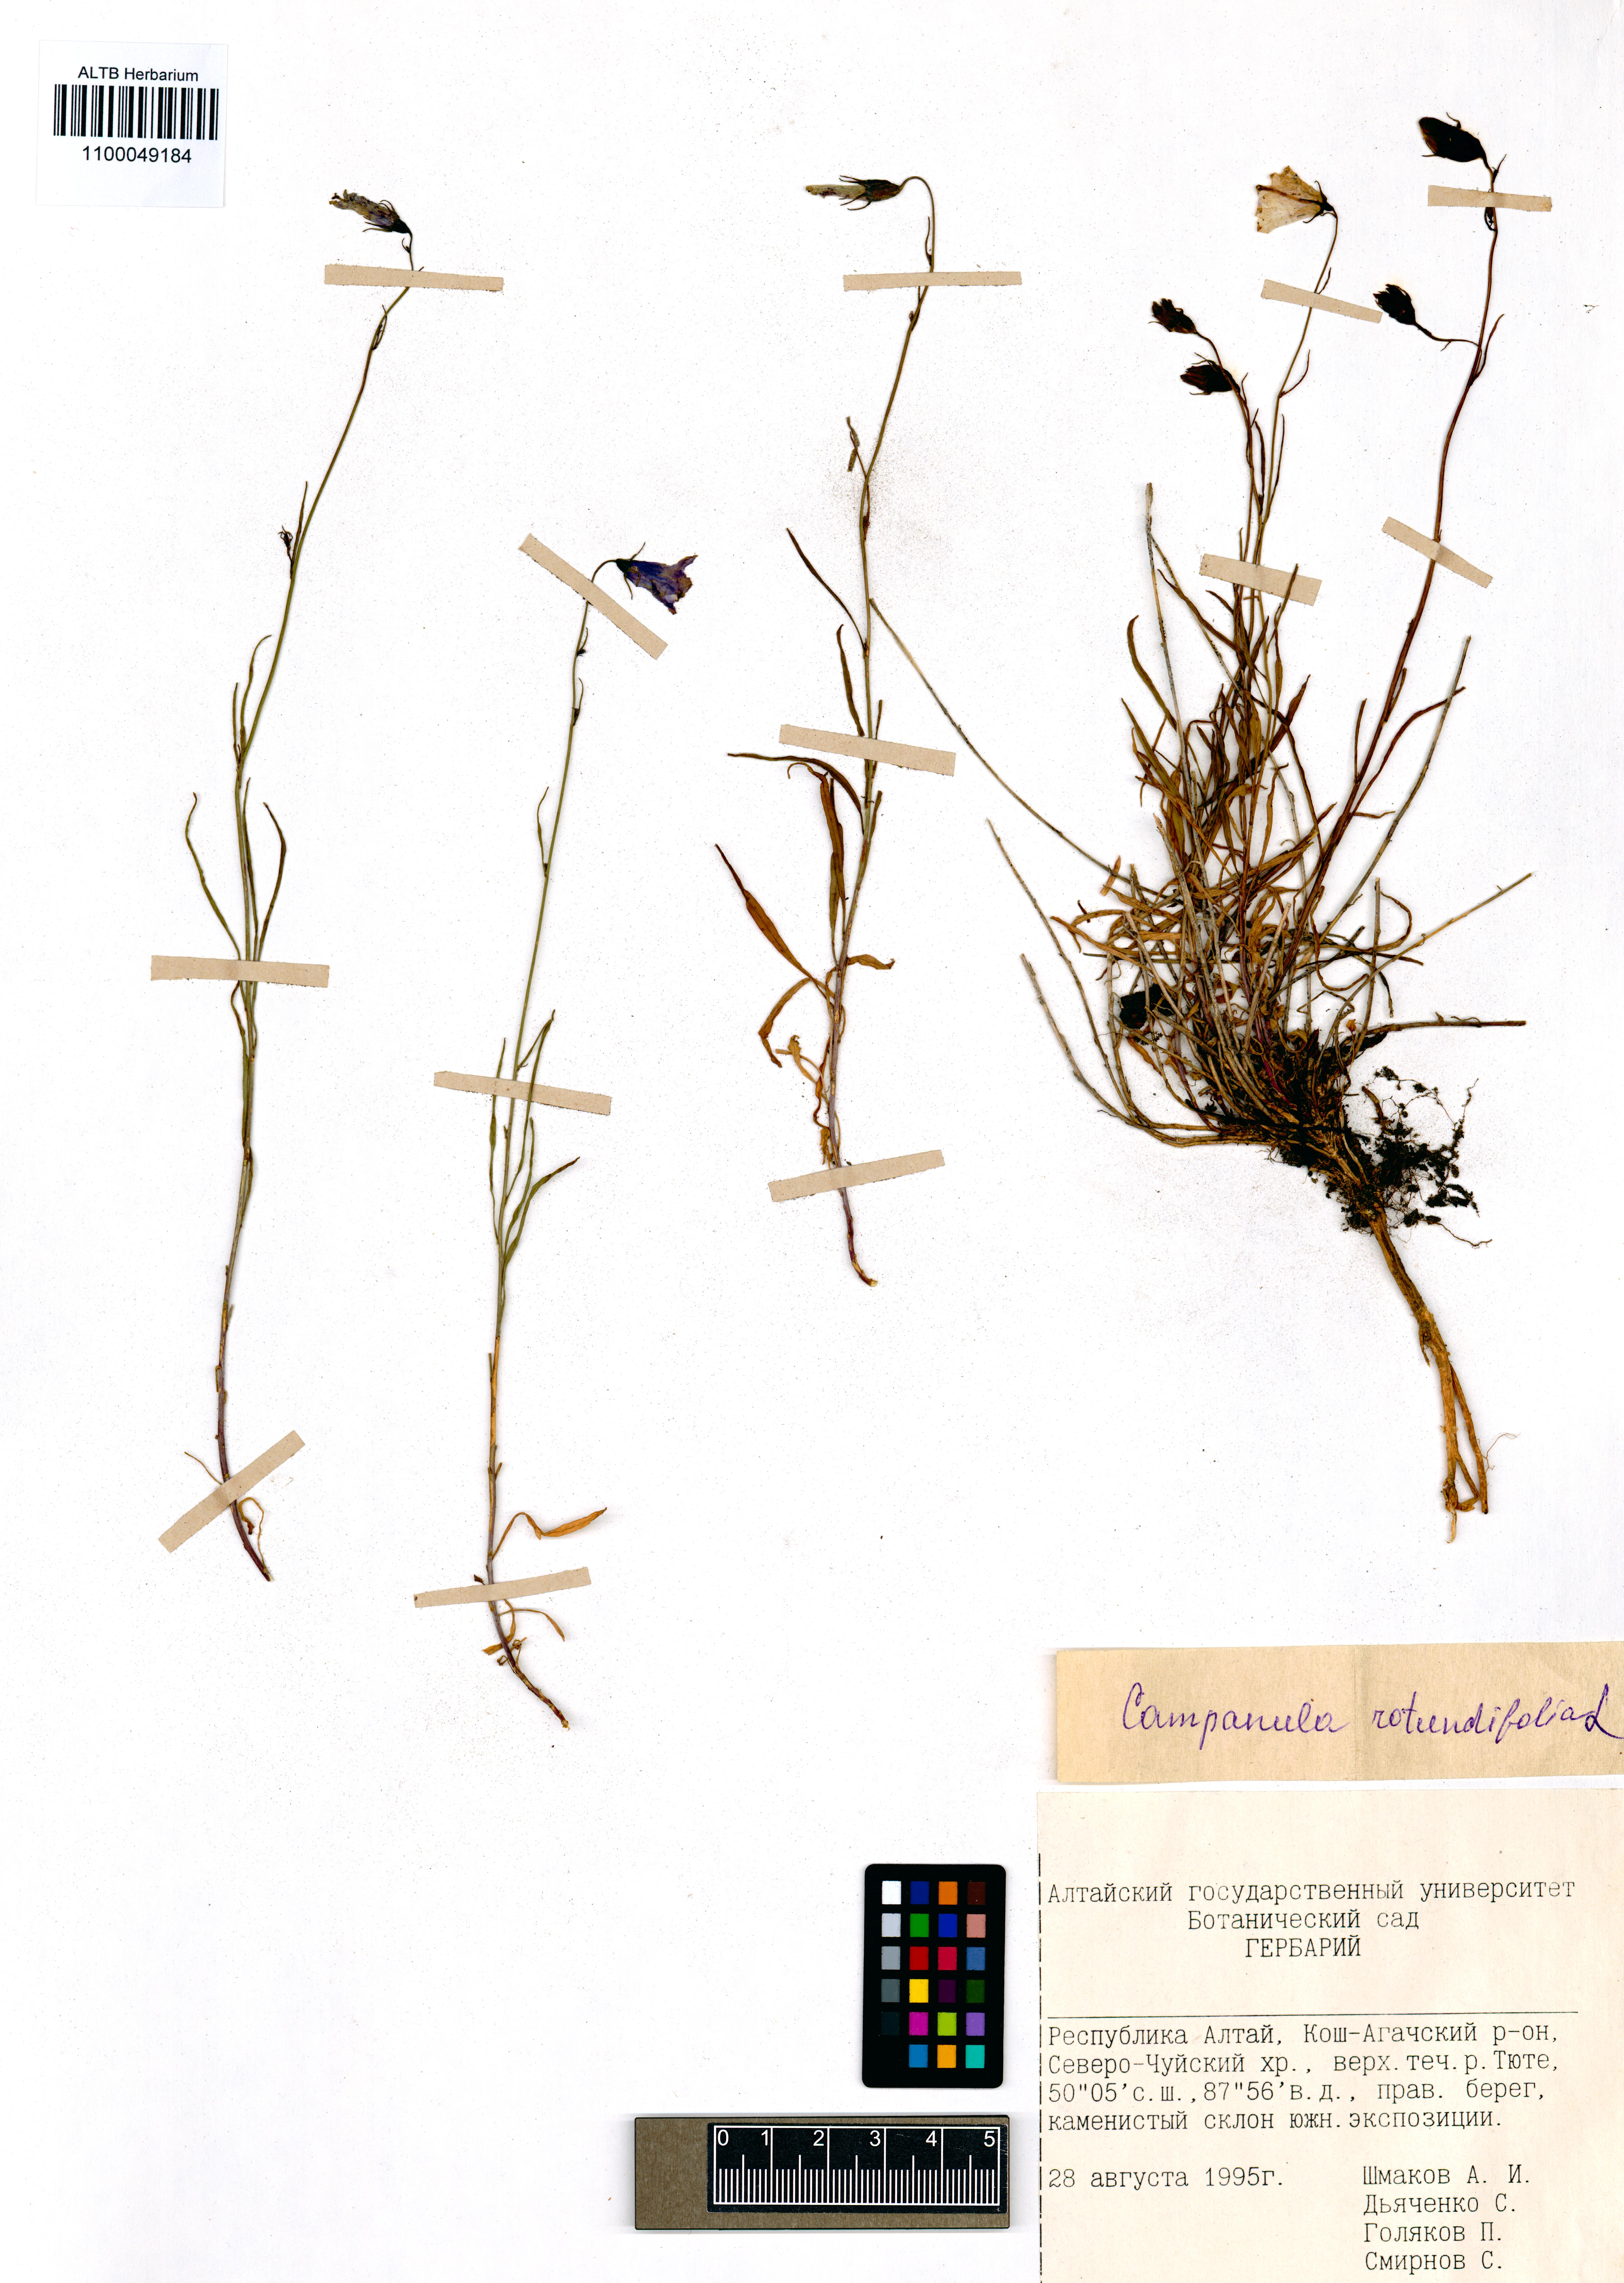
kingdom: Plantae
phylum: Tracheophyta
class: Magnoliopsida
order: Asterales
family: Campanulaceae
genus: Campanula
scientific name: Campanula rotundifolia
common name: Harebell
